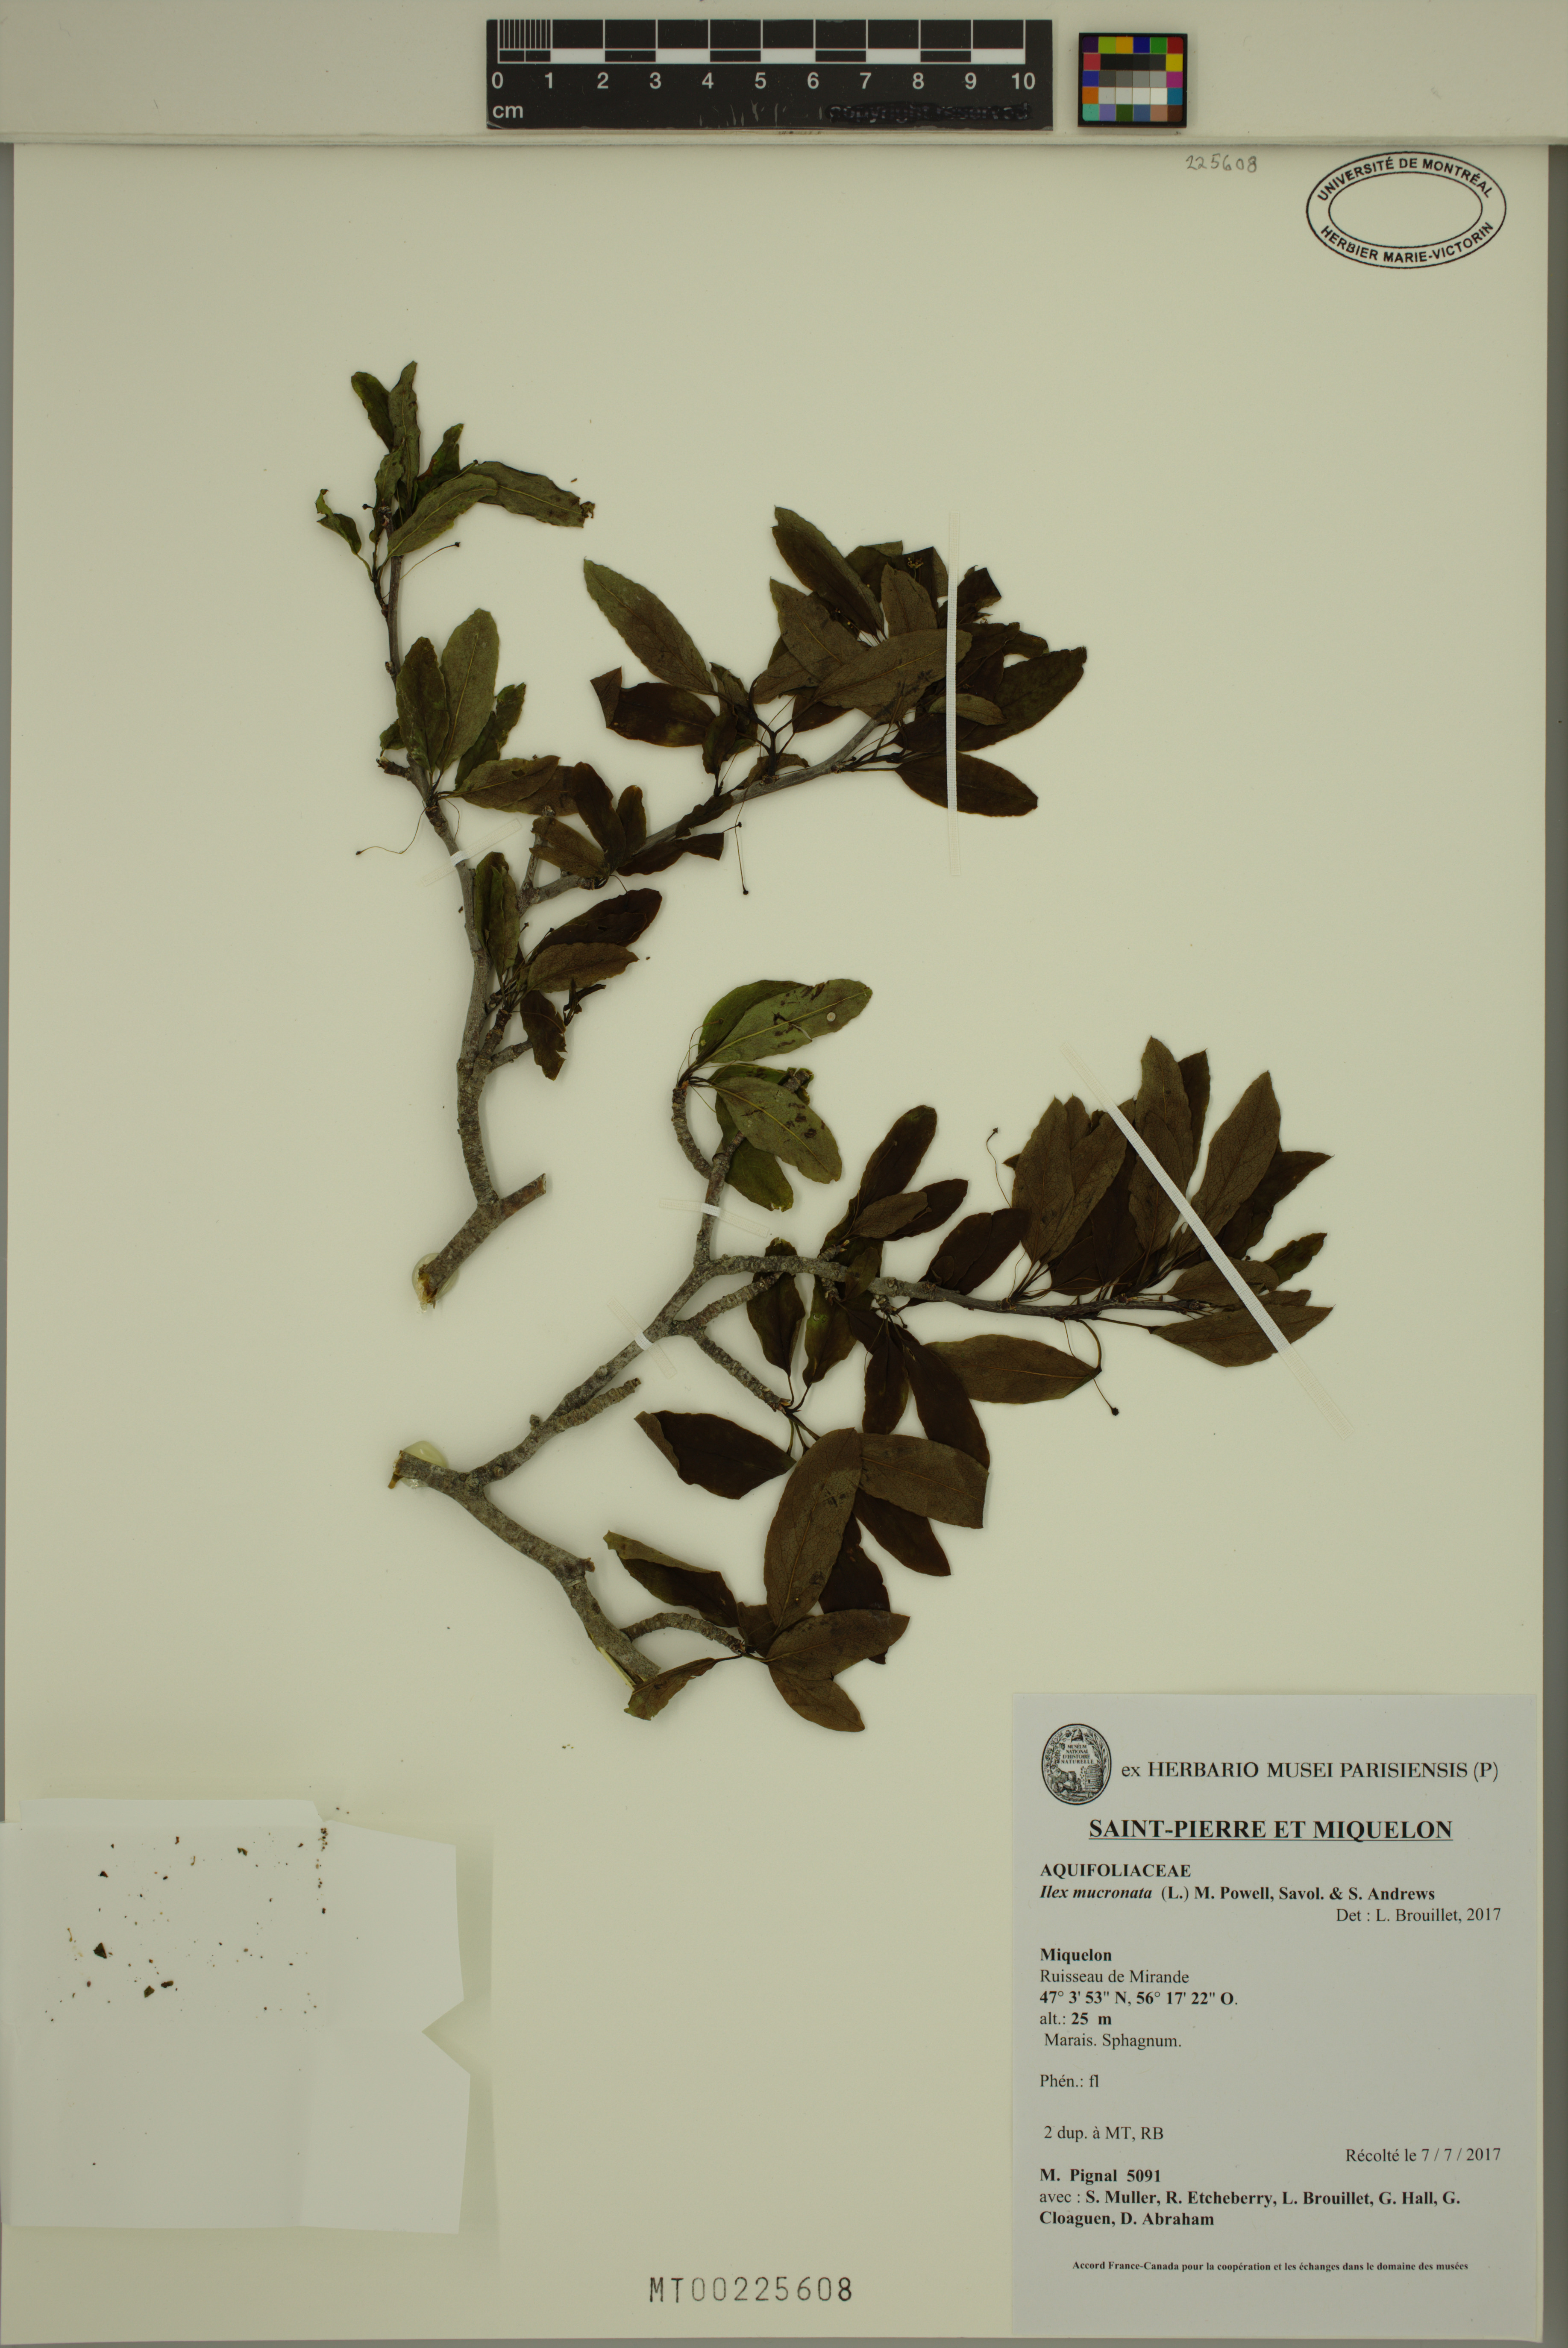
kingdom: Plantae
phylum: Tracheophyta
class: Magnoliopsida
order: Aquifoliales
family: Aquifoliaceae
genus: Ilex
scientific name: Ilex mucronata
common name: Catberry
